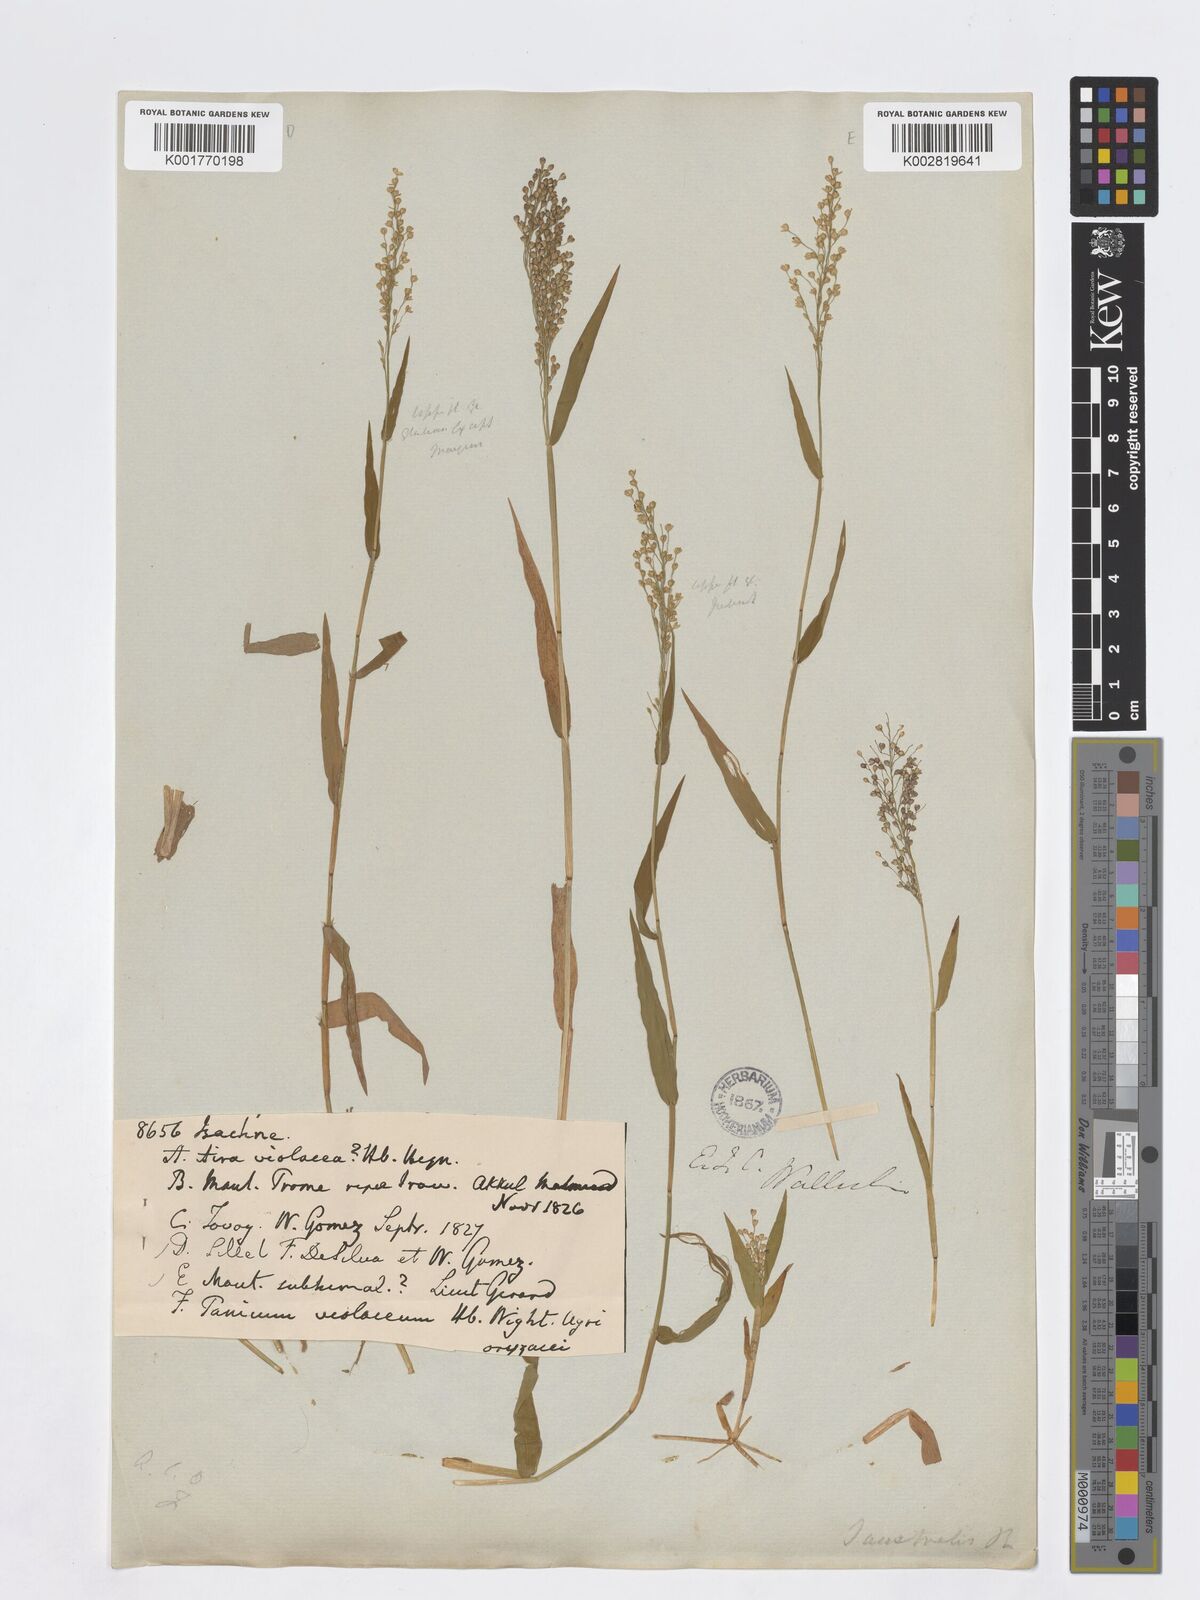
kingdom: Plantae
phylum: Tracheophyta
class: Liliopsida
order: Poales
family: Poaceae
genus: Isachne
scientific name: Isachne
